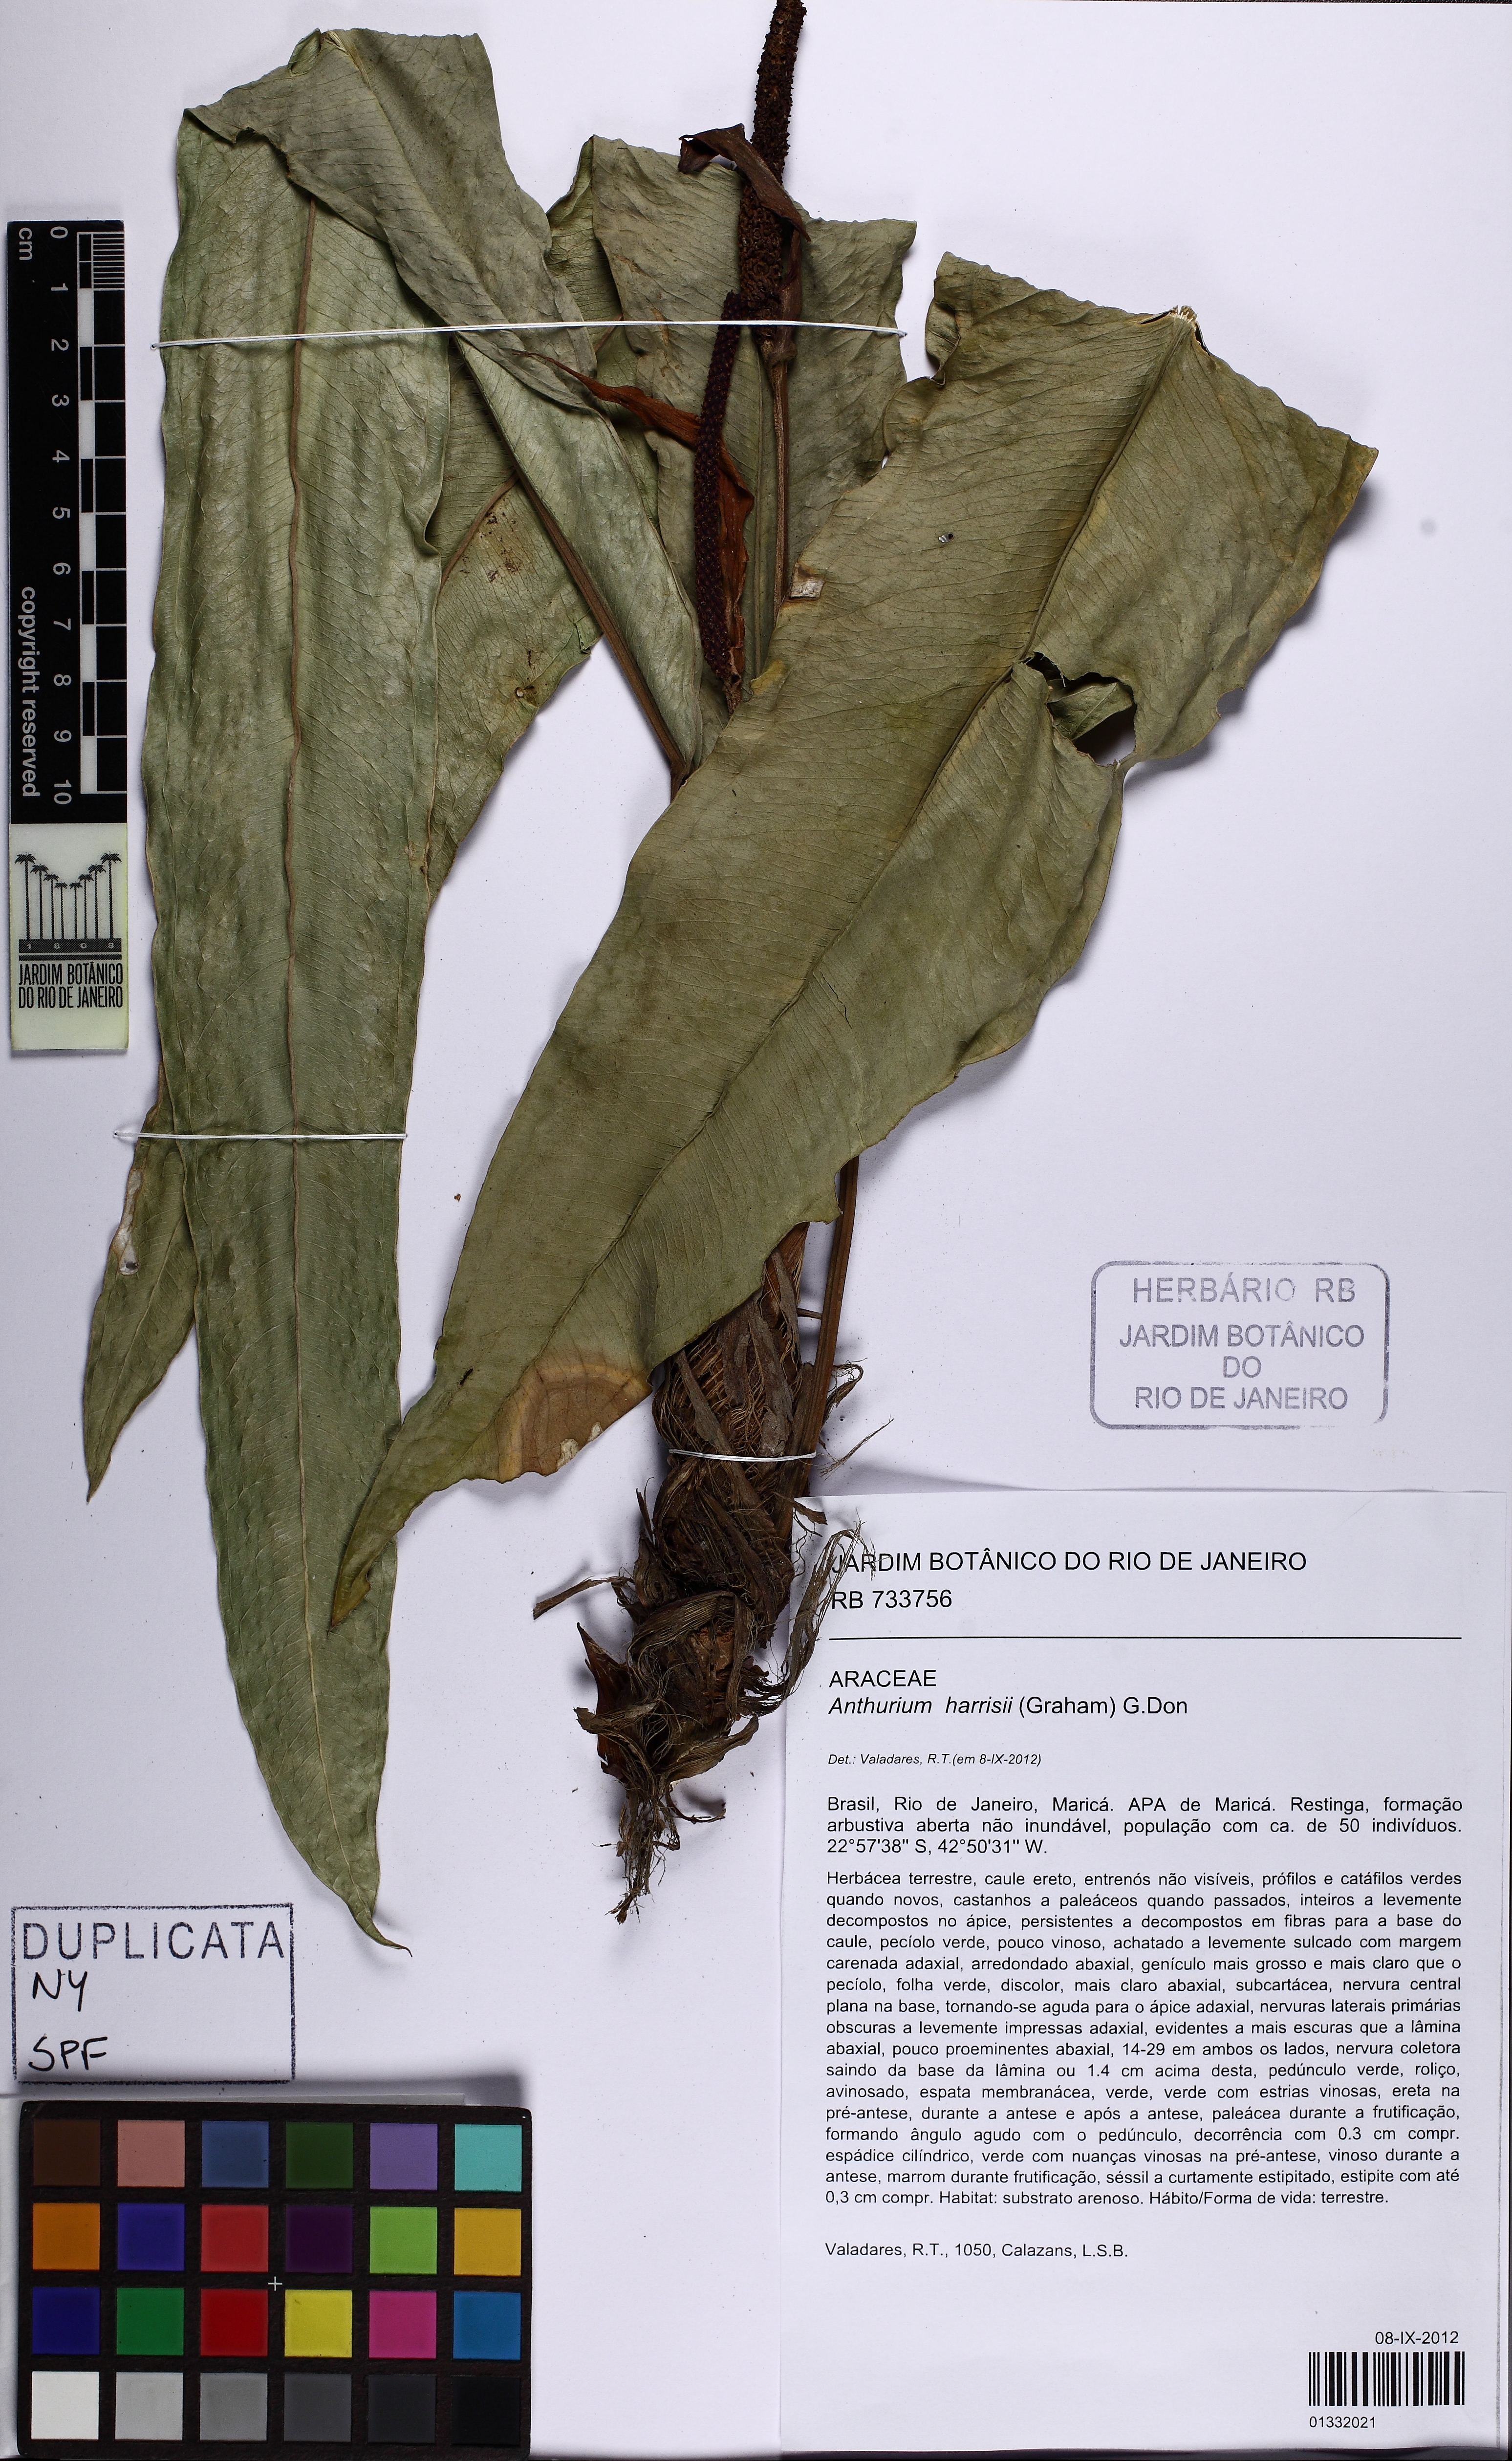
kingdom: Plantae
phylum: Tracheophyta
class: Liliopsida
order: Alismatales
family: Araceae
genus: Anthurium
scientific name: Anthurium harrisii
